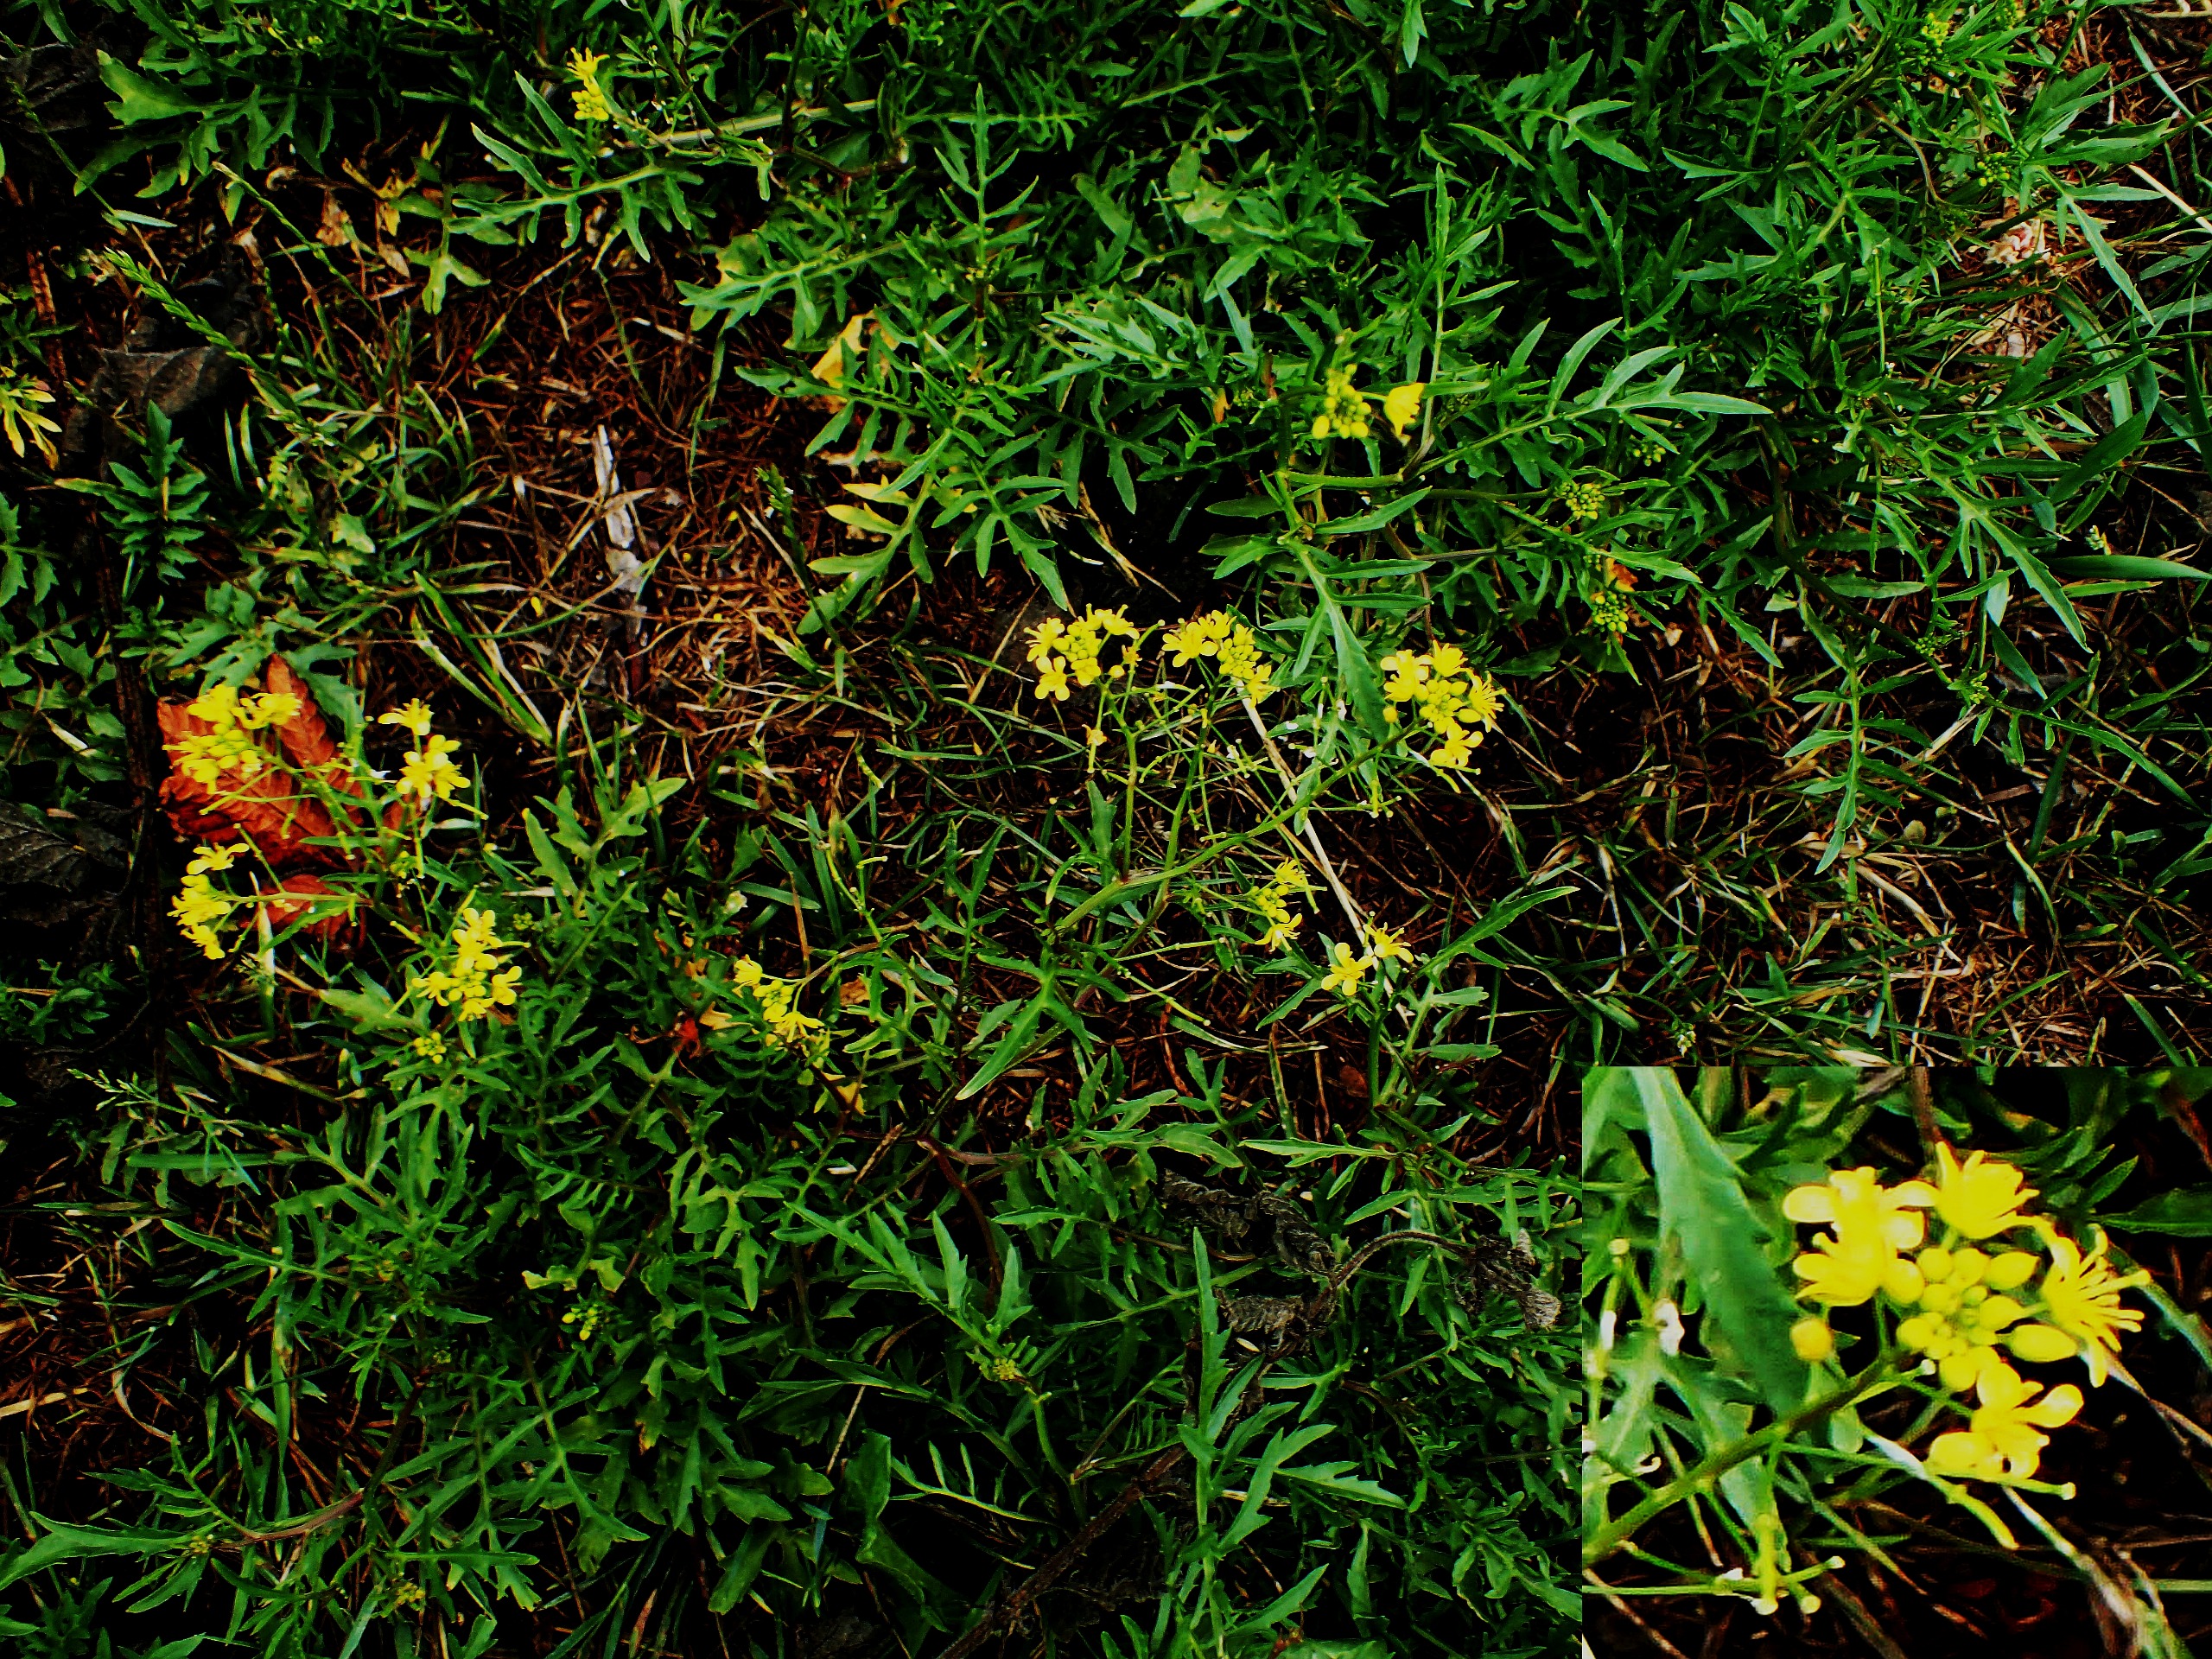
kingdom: Plantae
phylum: Tracheophyta
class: Magnoliopsida
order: Brassicales
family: Brassicaceae
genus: Rorippa
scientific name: Rorippa sylvestris
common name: Vej-guldkarse
